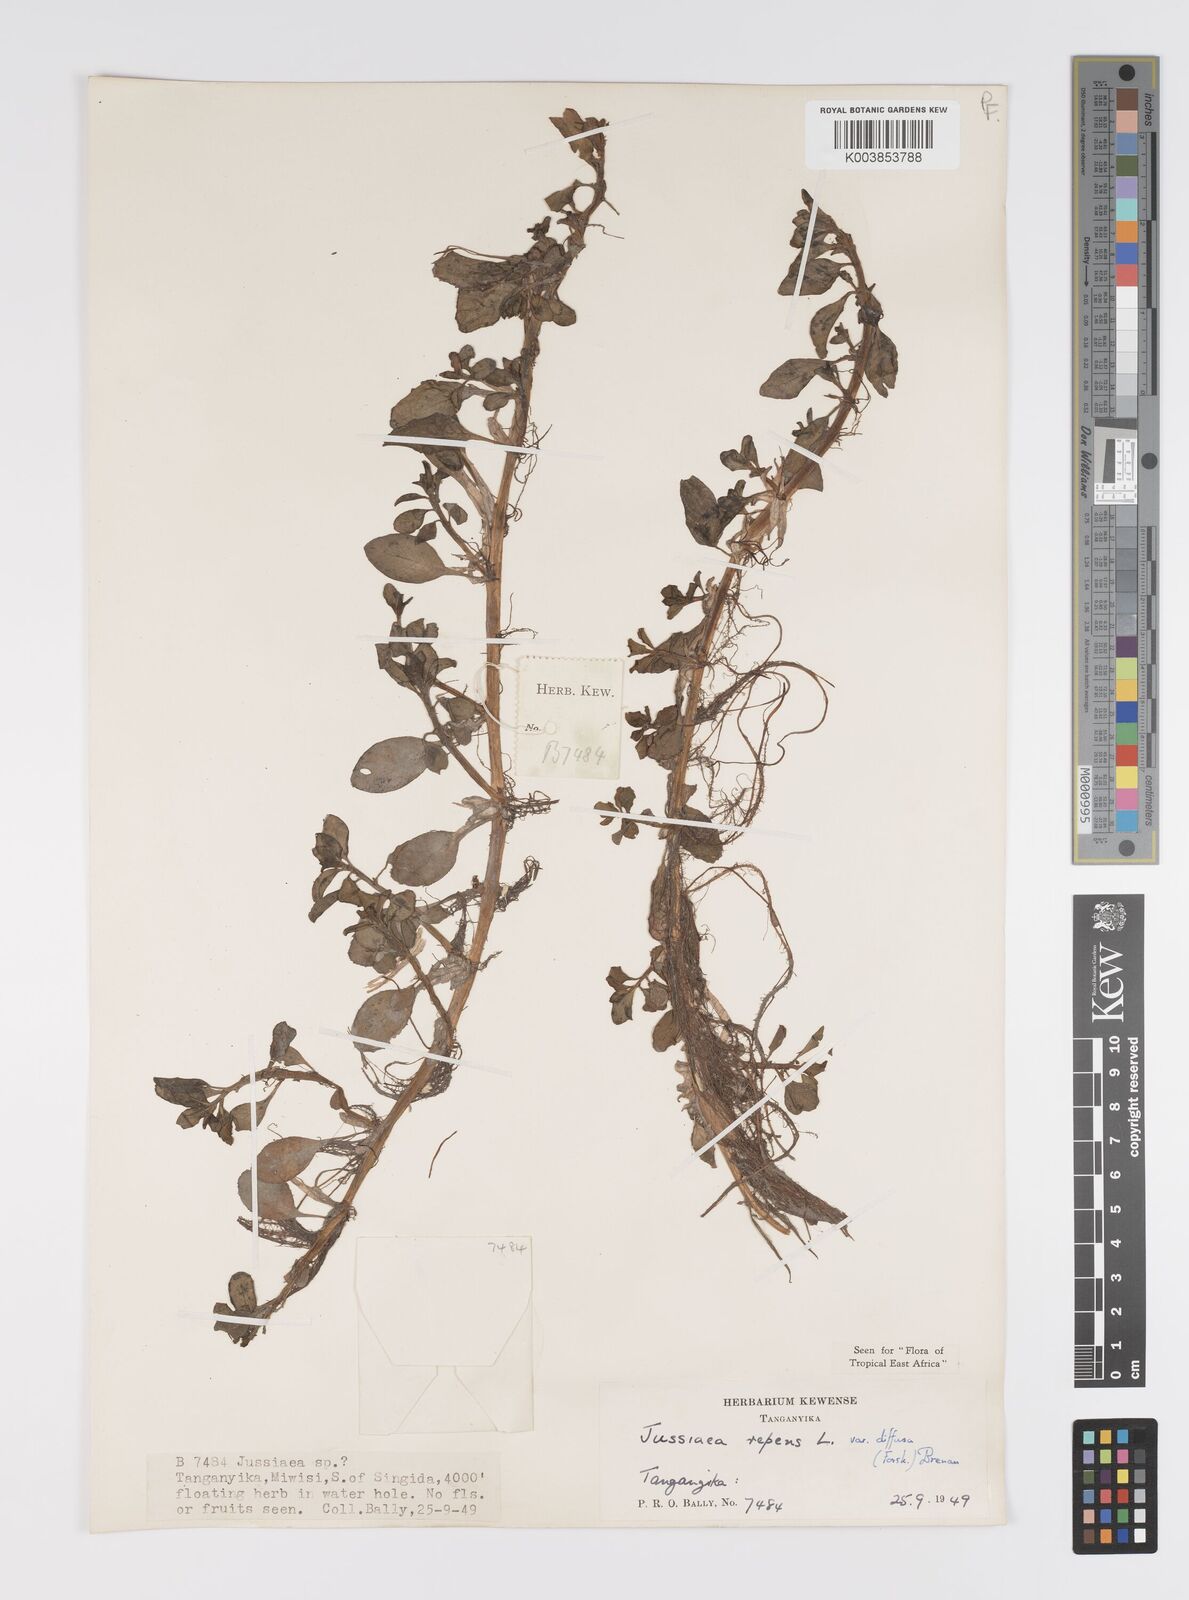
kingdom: Plantae
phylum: Tracheophyta
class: Magnoliopsida
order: Myrtales
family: Onagraceae
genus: Ludwigia
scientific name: Ludwigia repens
